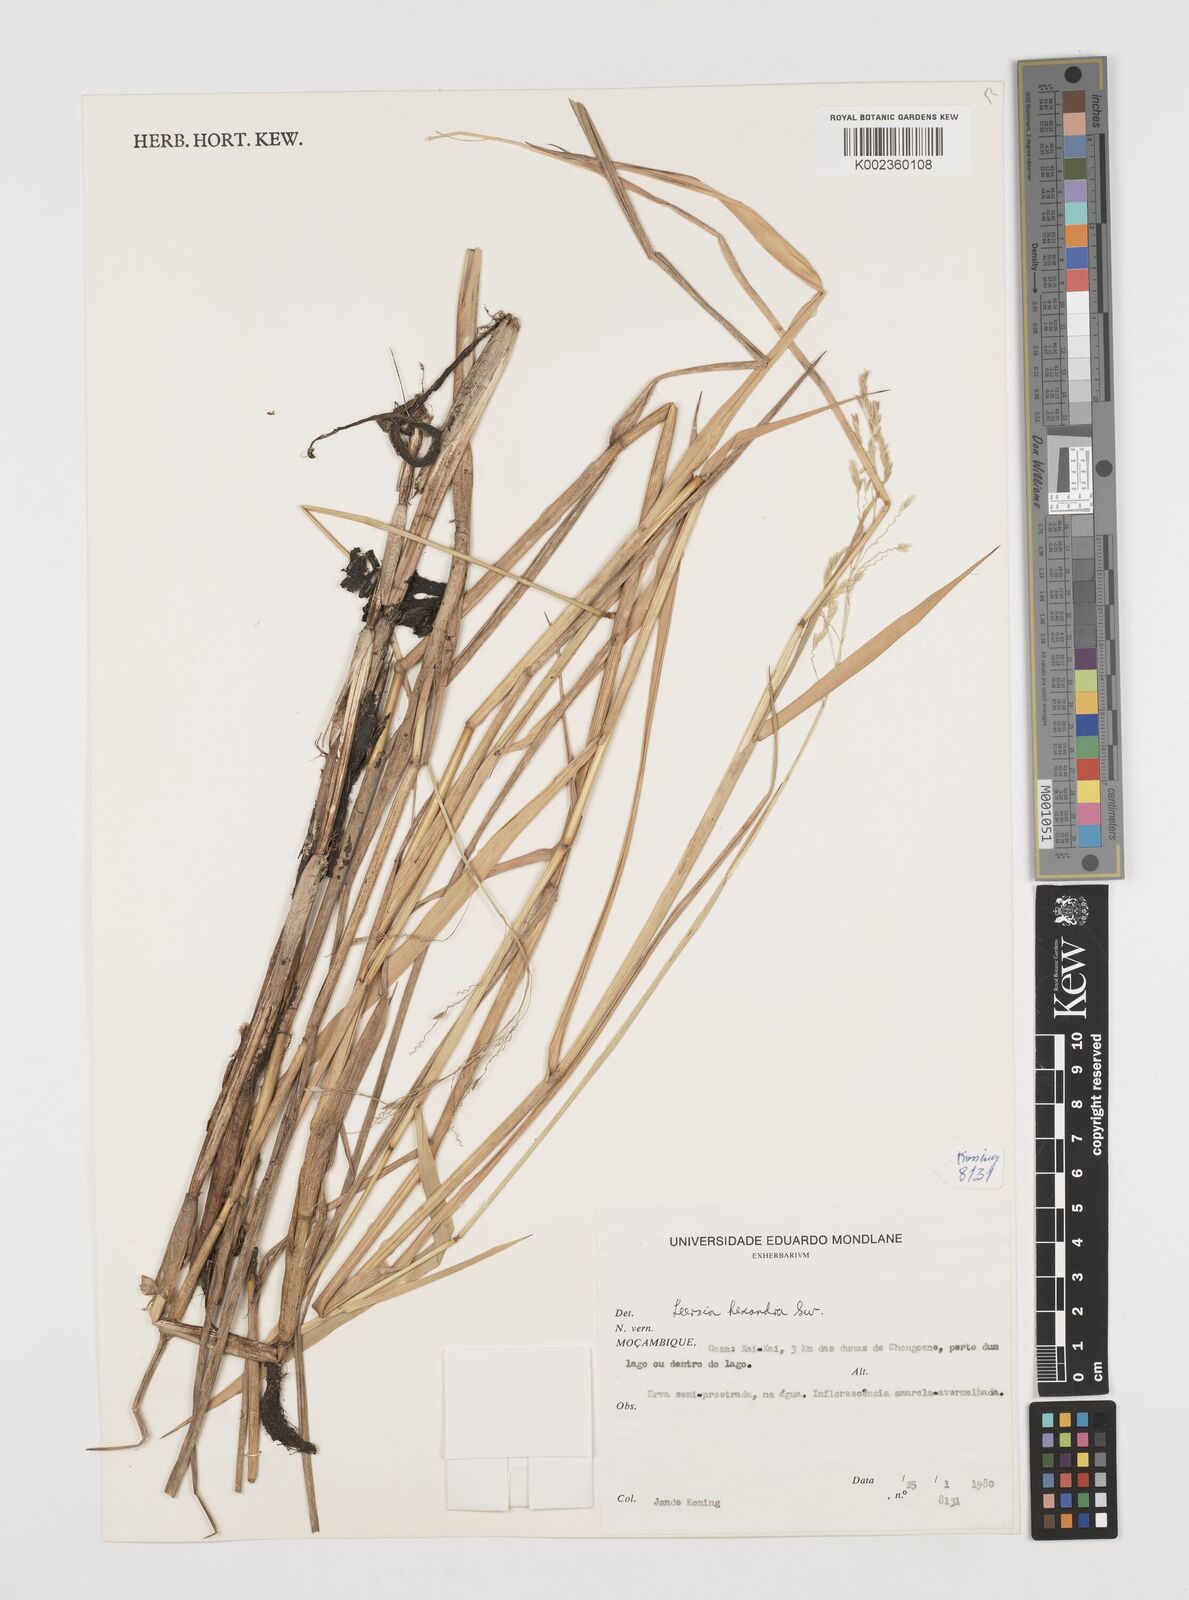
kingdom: Plantae
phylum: Tracheophyta
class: Liliopsida
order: Poales
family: Poaceae
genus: Leersia
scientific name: Leersia hexandra
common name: Southern cut grass
